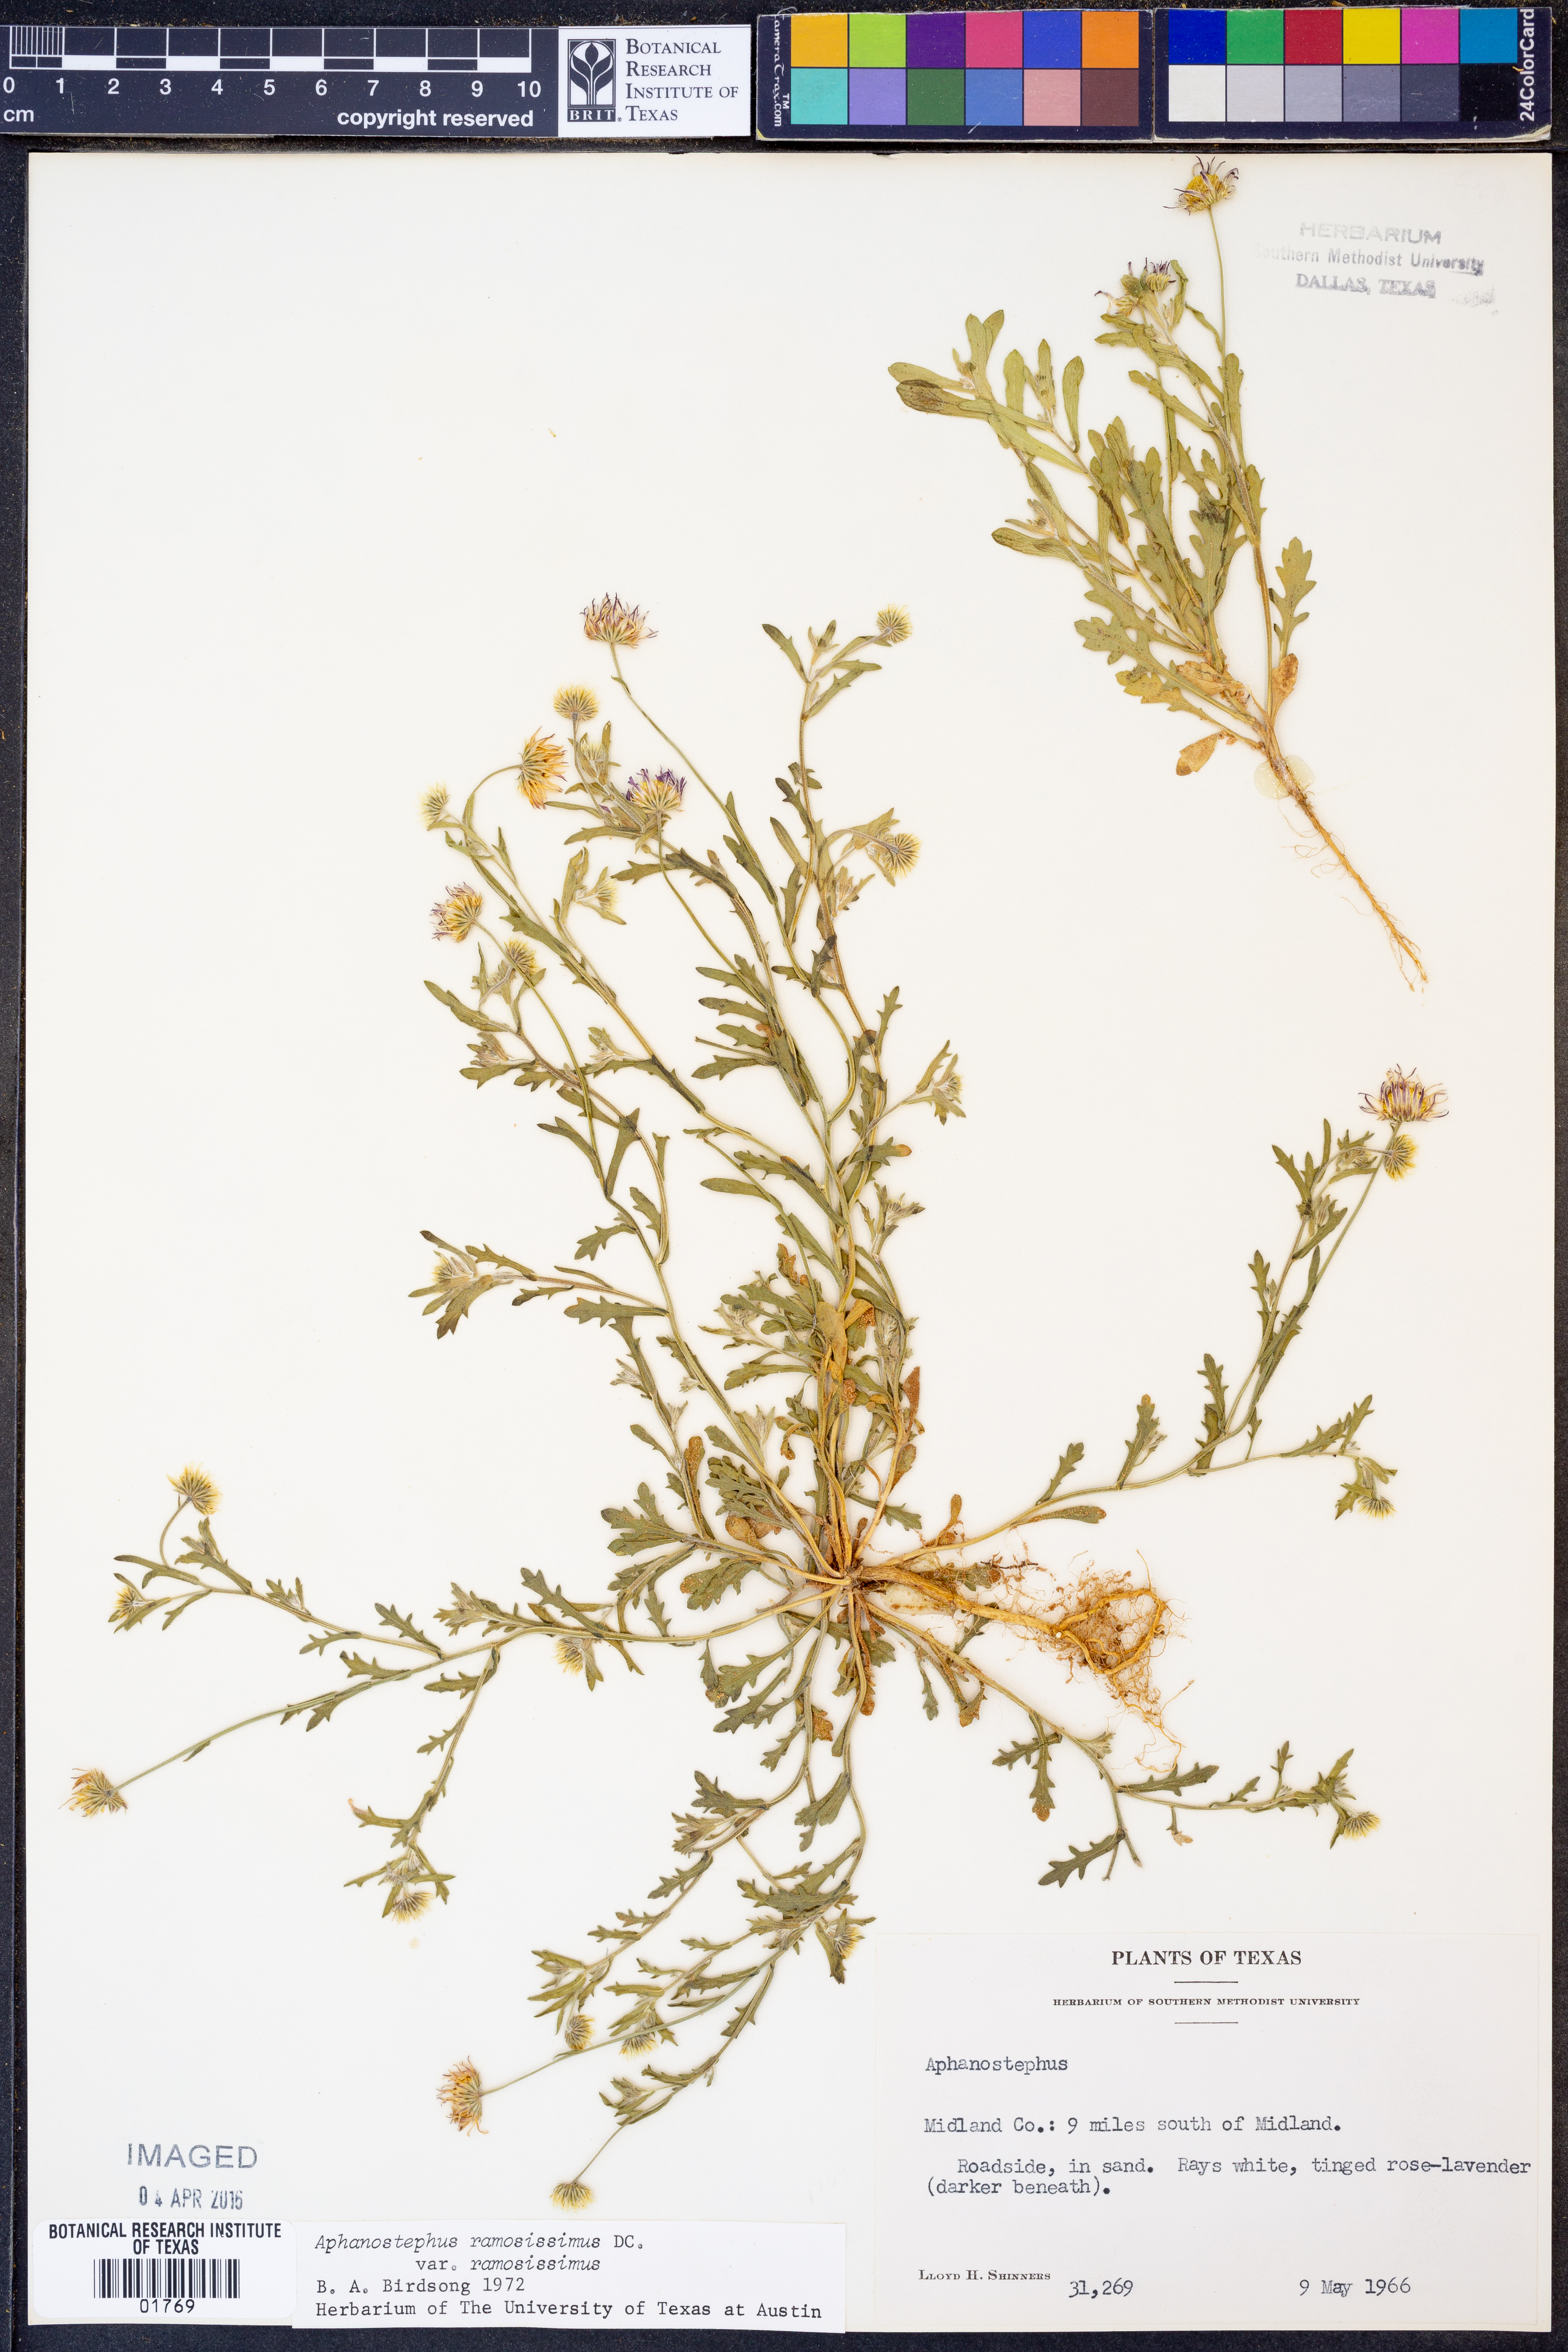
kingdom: Plantae
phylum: Tracheophyta
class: Magnoliopsida
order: Asterales
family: Asteraceae
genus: Aphanostephus
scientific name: Aphanostephus ramosissimus
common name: Plains lazy daisy
